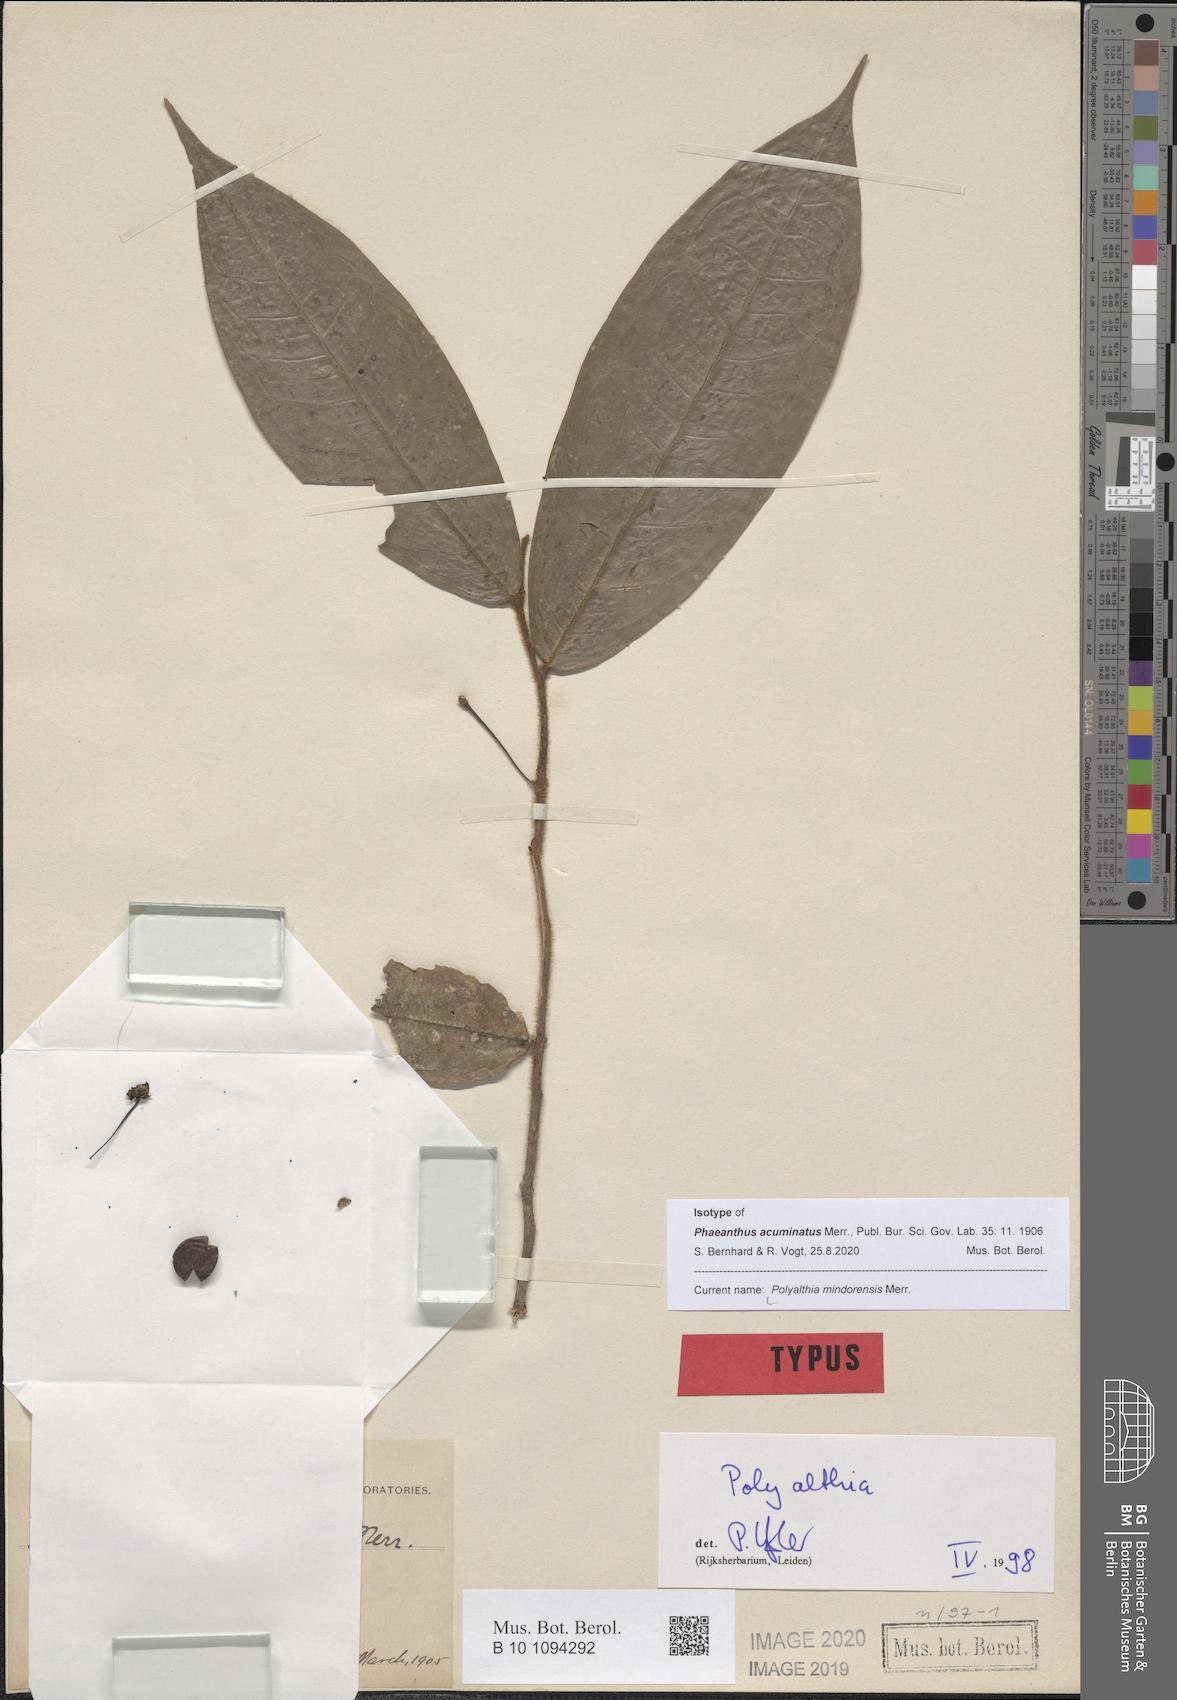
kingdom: Plantae
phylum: Tracheophyta
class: Magnoliopsida
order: Magnoliales
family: Annonaceae
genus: Polyalthia
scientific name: Polyalthia mindorensis
